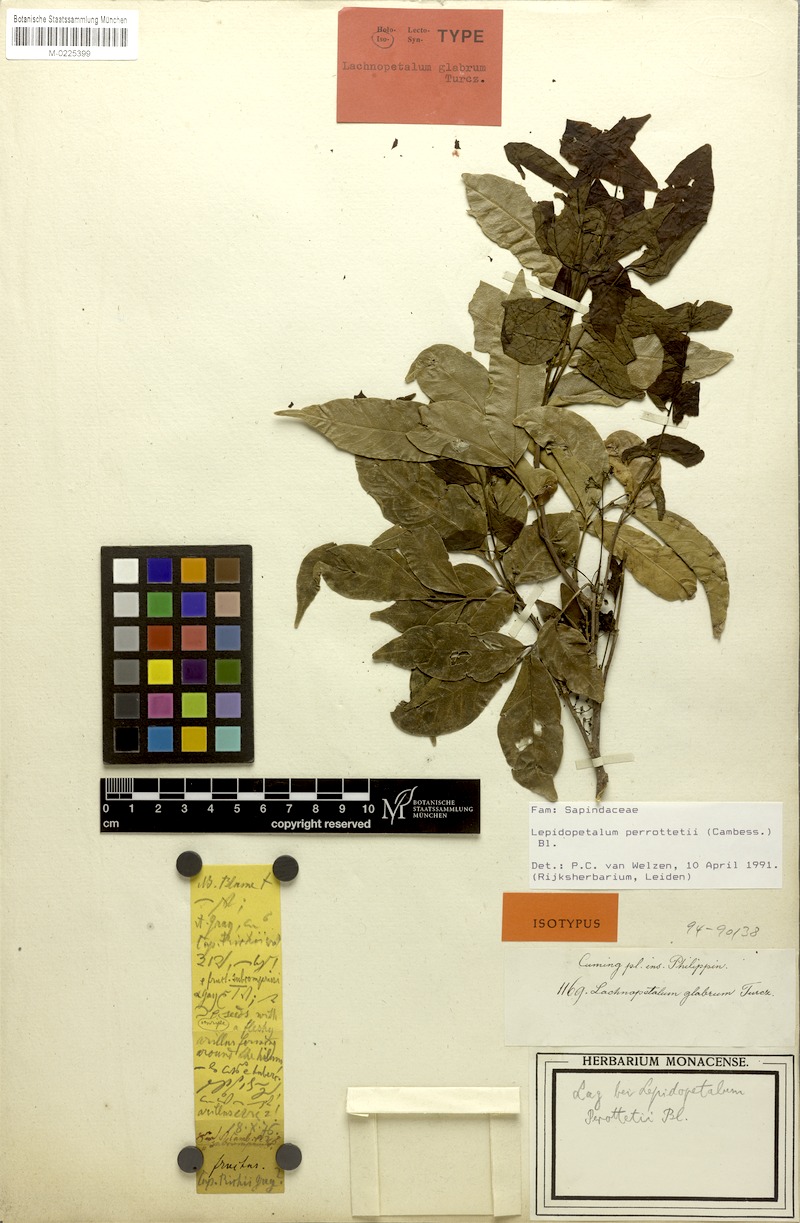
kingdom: Plantae
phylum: Tracheophyta
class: Magnoliopsida
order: Sapindales
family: Sapindaceae
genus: Lepidopetalum
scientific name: Lepidopetalum perrottetii
